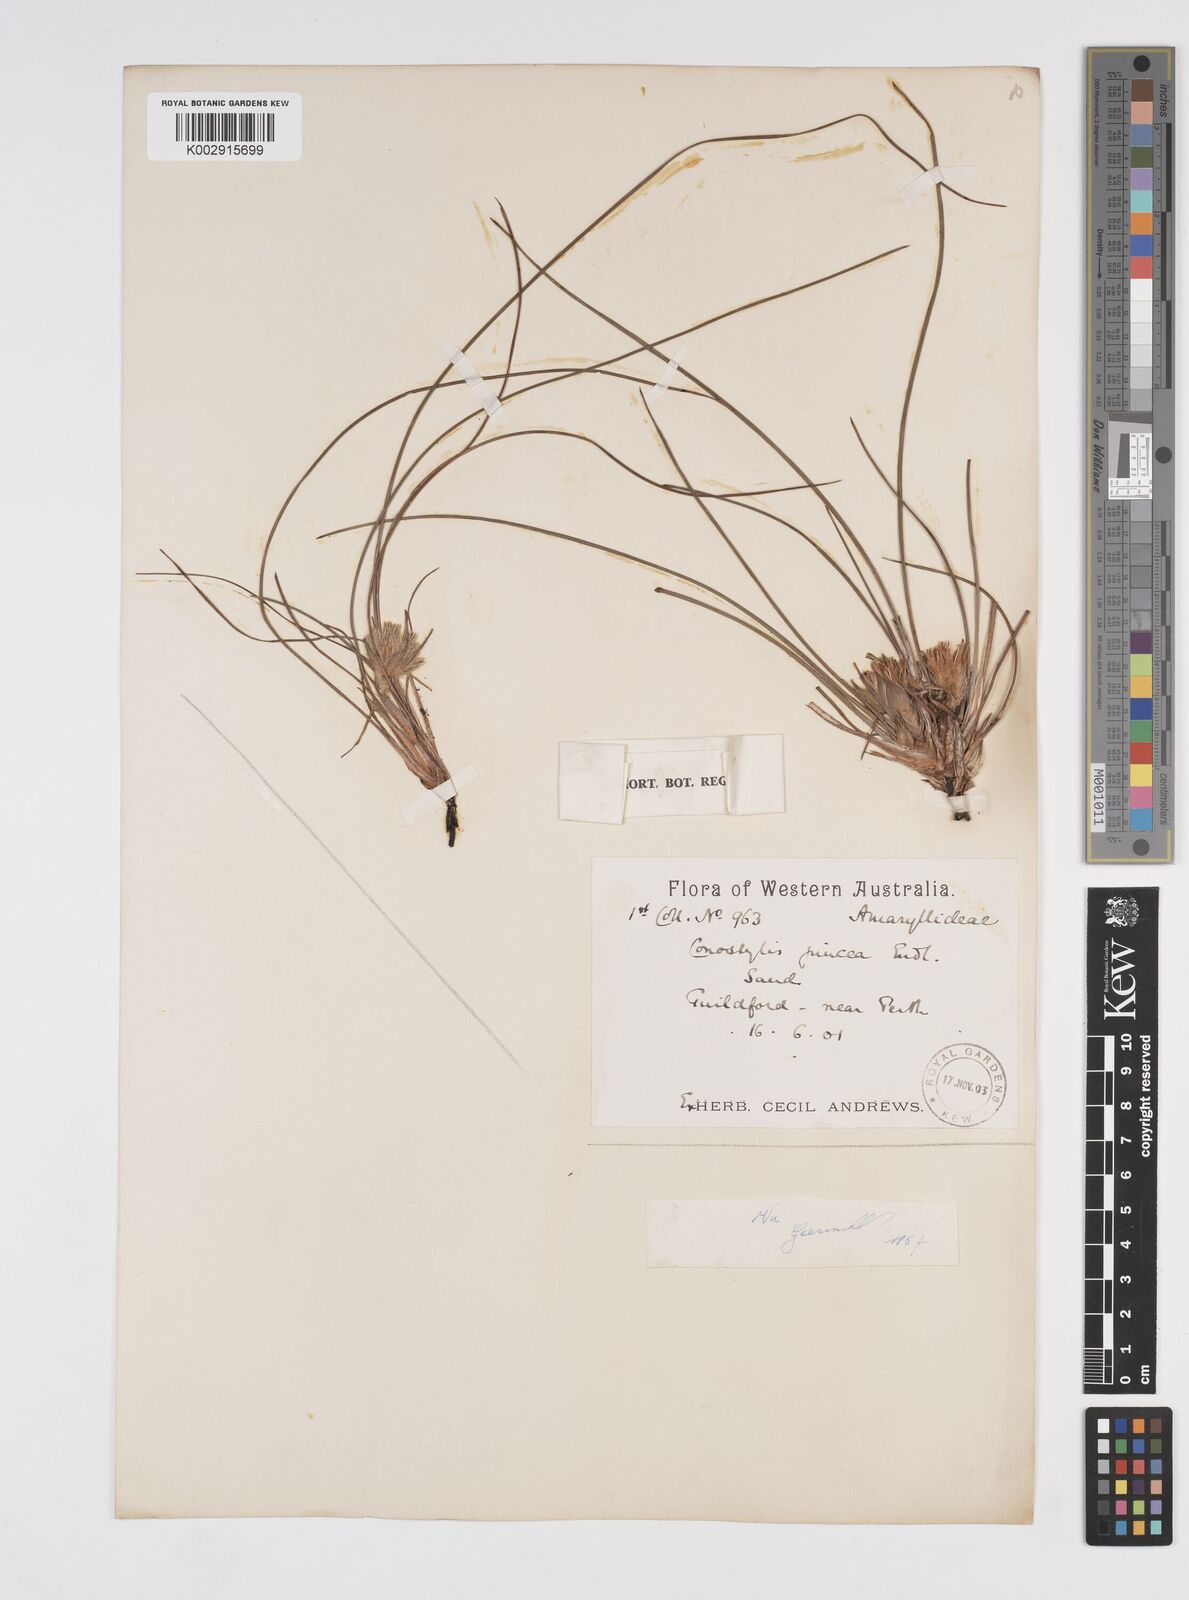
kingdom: Plantae
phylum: Tracheophyta
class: Liliopsida
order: Commelinales
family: Haemodoraceae
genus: Conostylis
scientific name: Conostylis juncea
